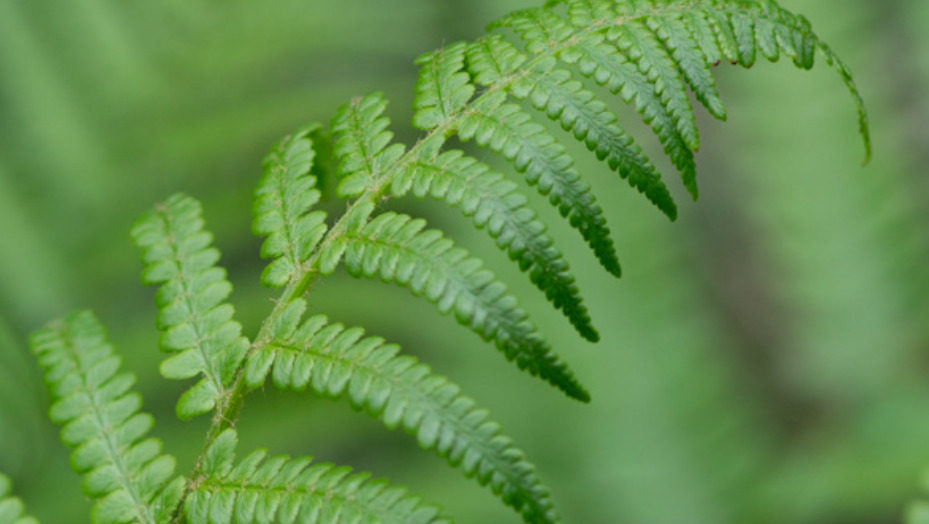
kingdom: Plantae
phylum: Tracheophyta
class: Polypodiopsida
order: Polypodiales
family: Dryopteridaceae
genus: Dryopteris
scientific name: Dryopteris filix-mas
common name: Almindelig mangeløv
